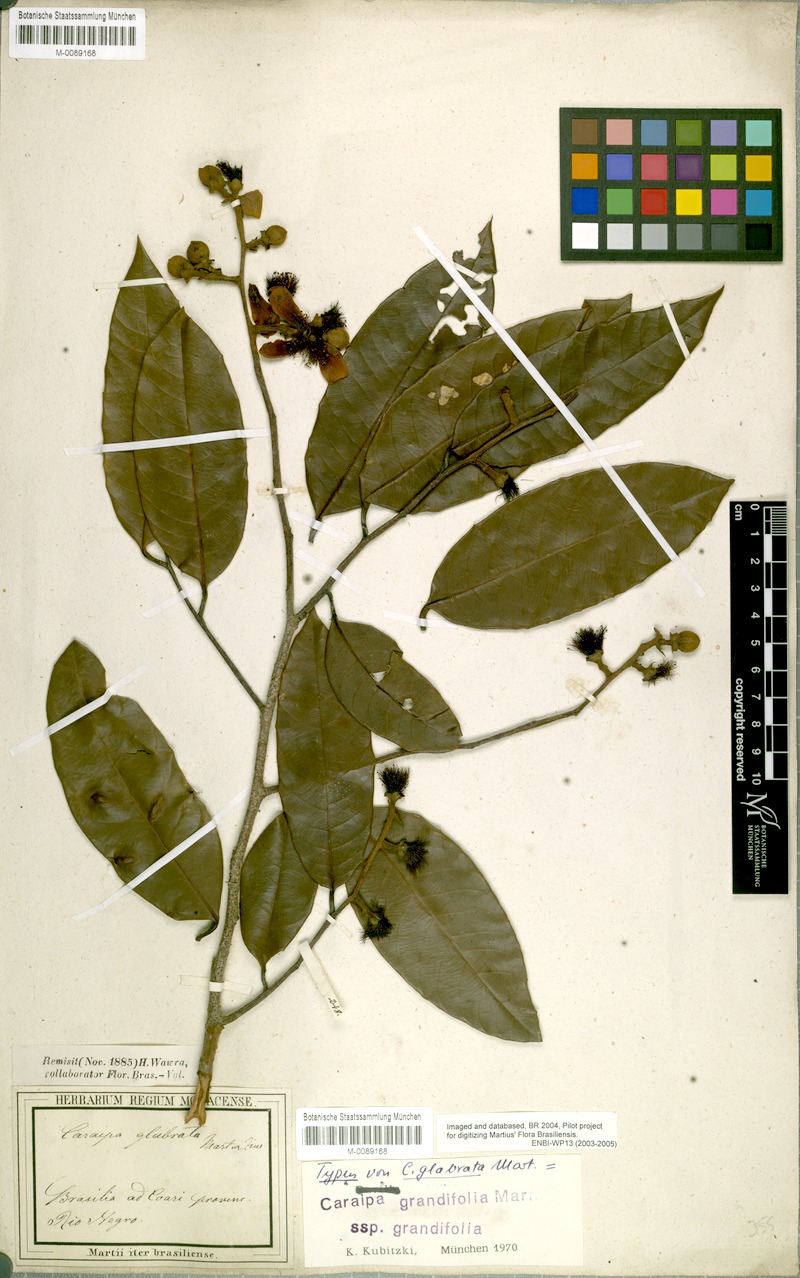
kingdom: Plantae
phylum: Tracheophyta
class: Magnoliopsida
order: Malpighiales
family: Calophyllaceae
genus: Caraipa
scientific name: Caraipa grandifolia
